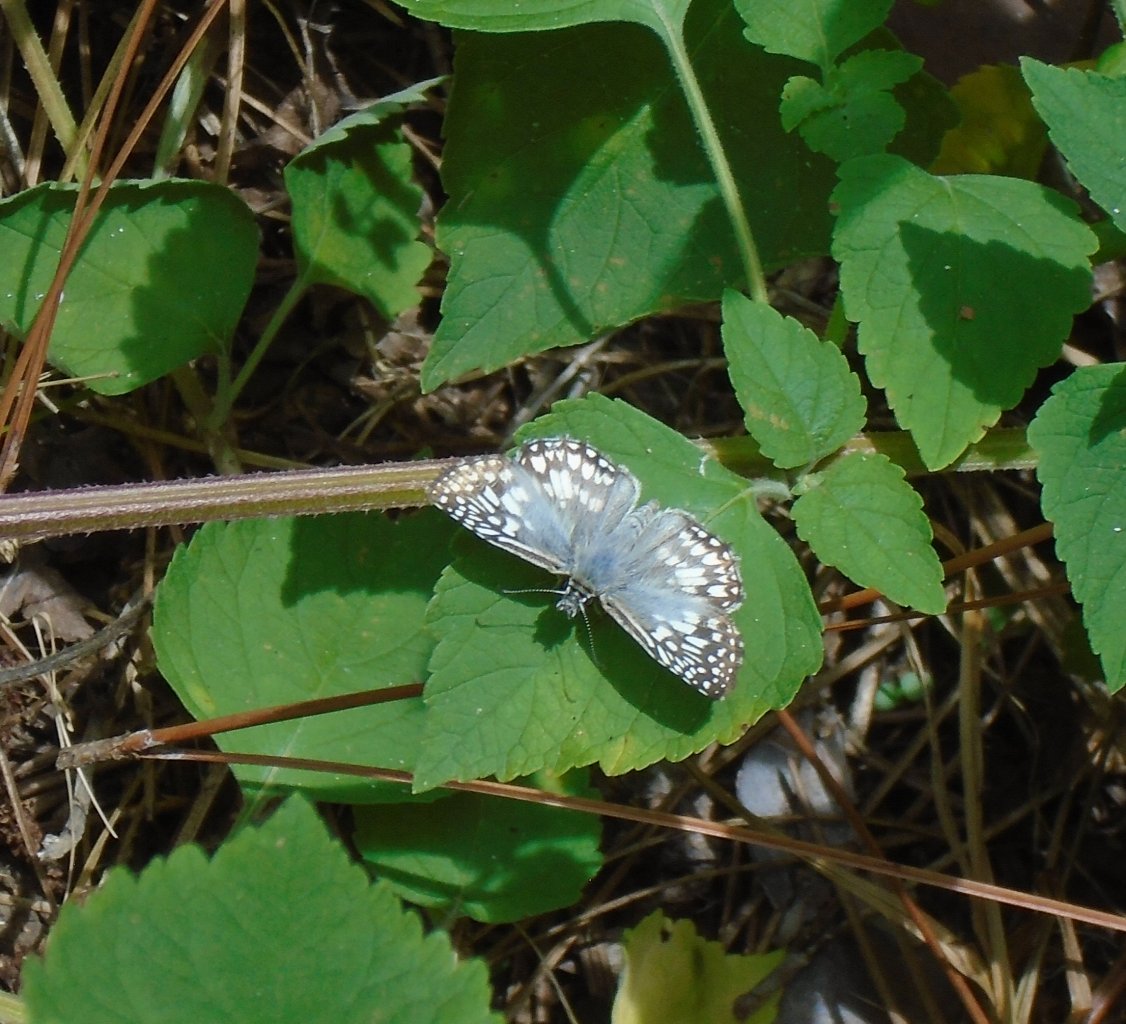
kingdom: Animalia
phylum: Arthropoda
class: Insecta
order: Lepidoptera
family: Hesperiidae
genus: Pyrgus
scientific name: Pyrgus oileus
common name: Tropical Checkered-Skipper
